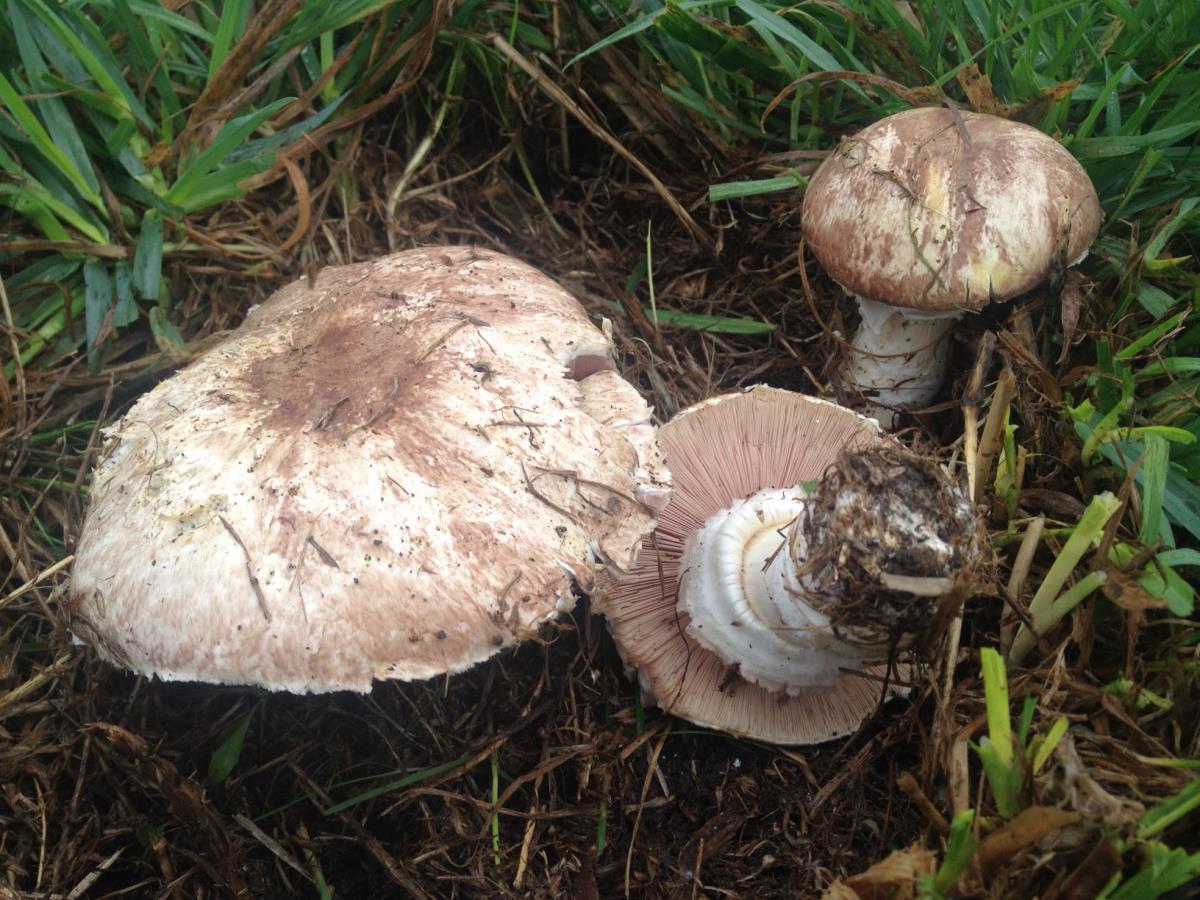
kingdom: Fungi
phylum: Basidiomycota
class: Agaricomycetes
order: Agaricales
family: Agaricaceae
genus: Agaricus
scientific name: Agaricus
